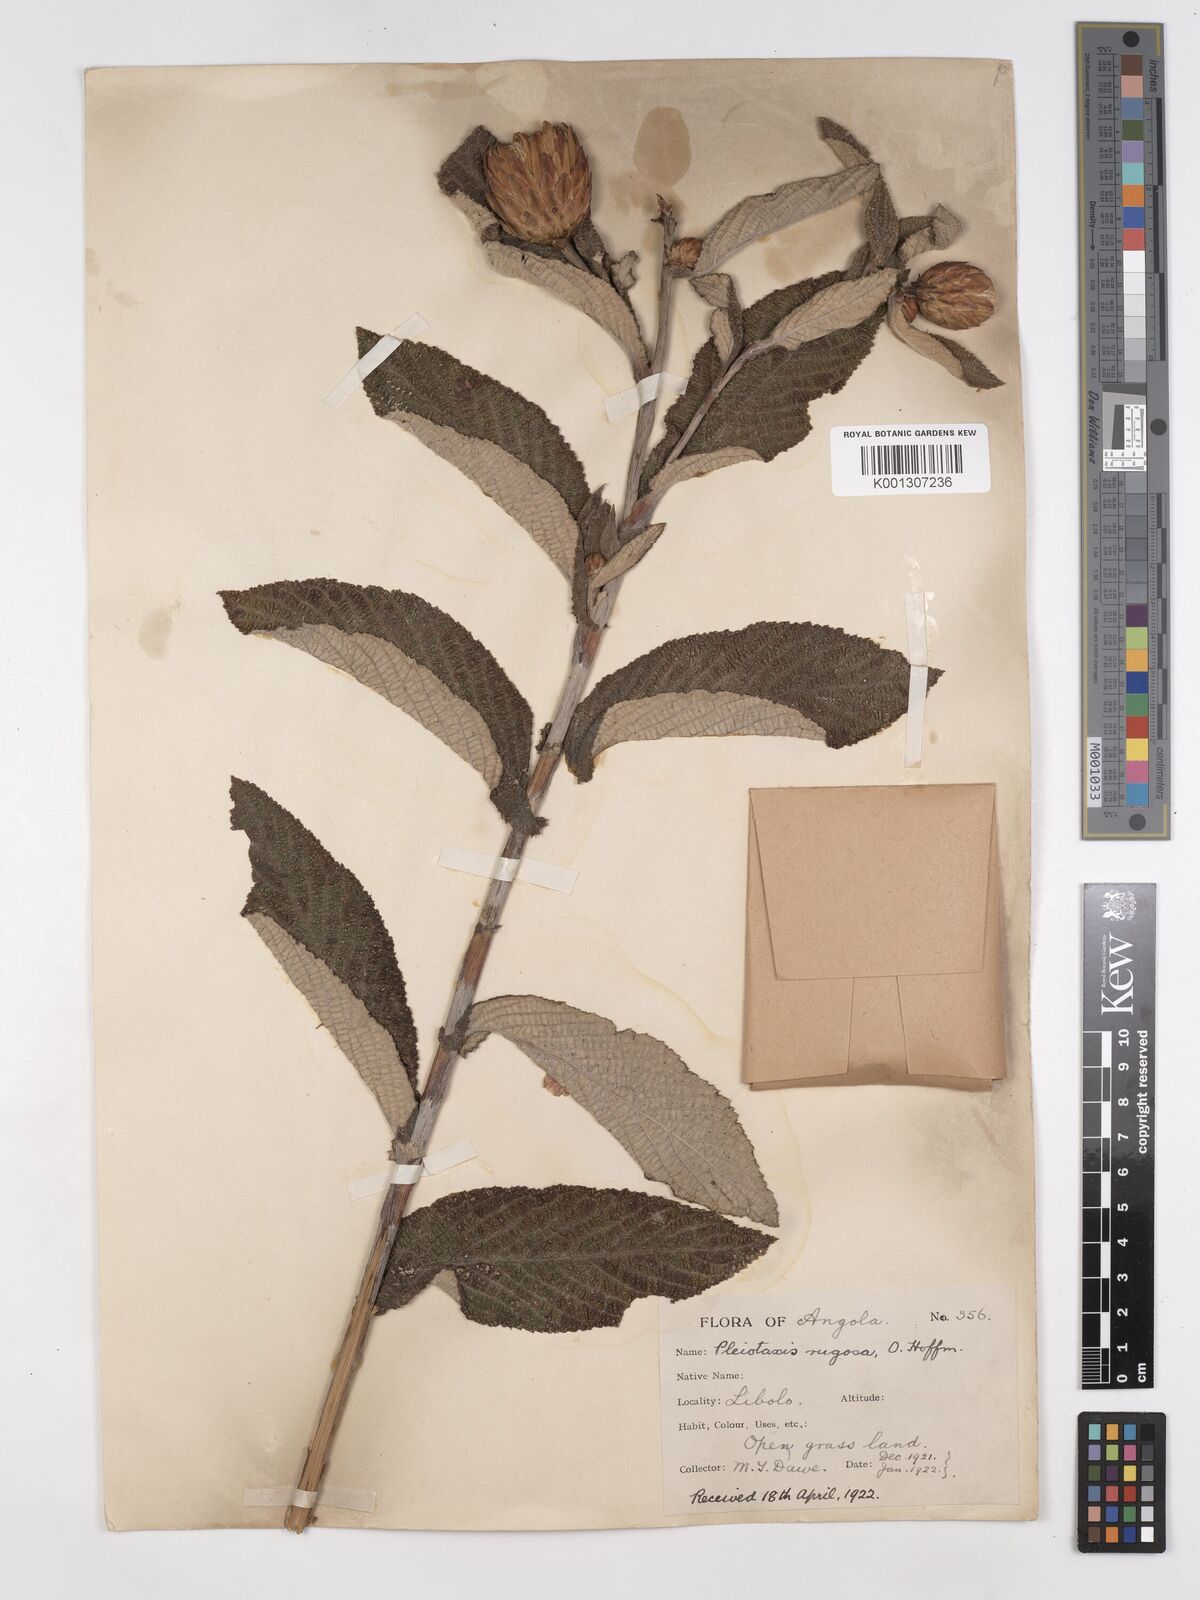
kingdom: Plantae
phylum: Tracheophyta
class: Magnoliopsida
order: Asterales
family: Asteraceae
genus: Pleiotaxis
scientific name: Pleiotaxis rugosa
